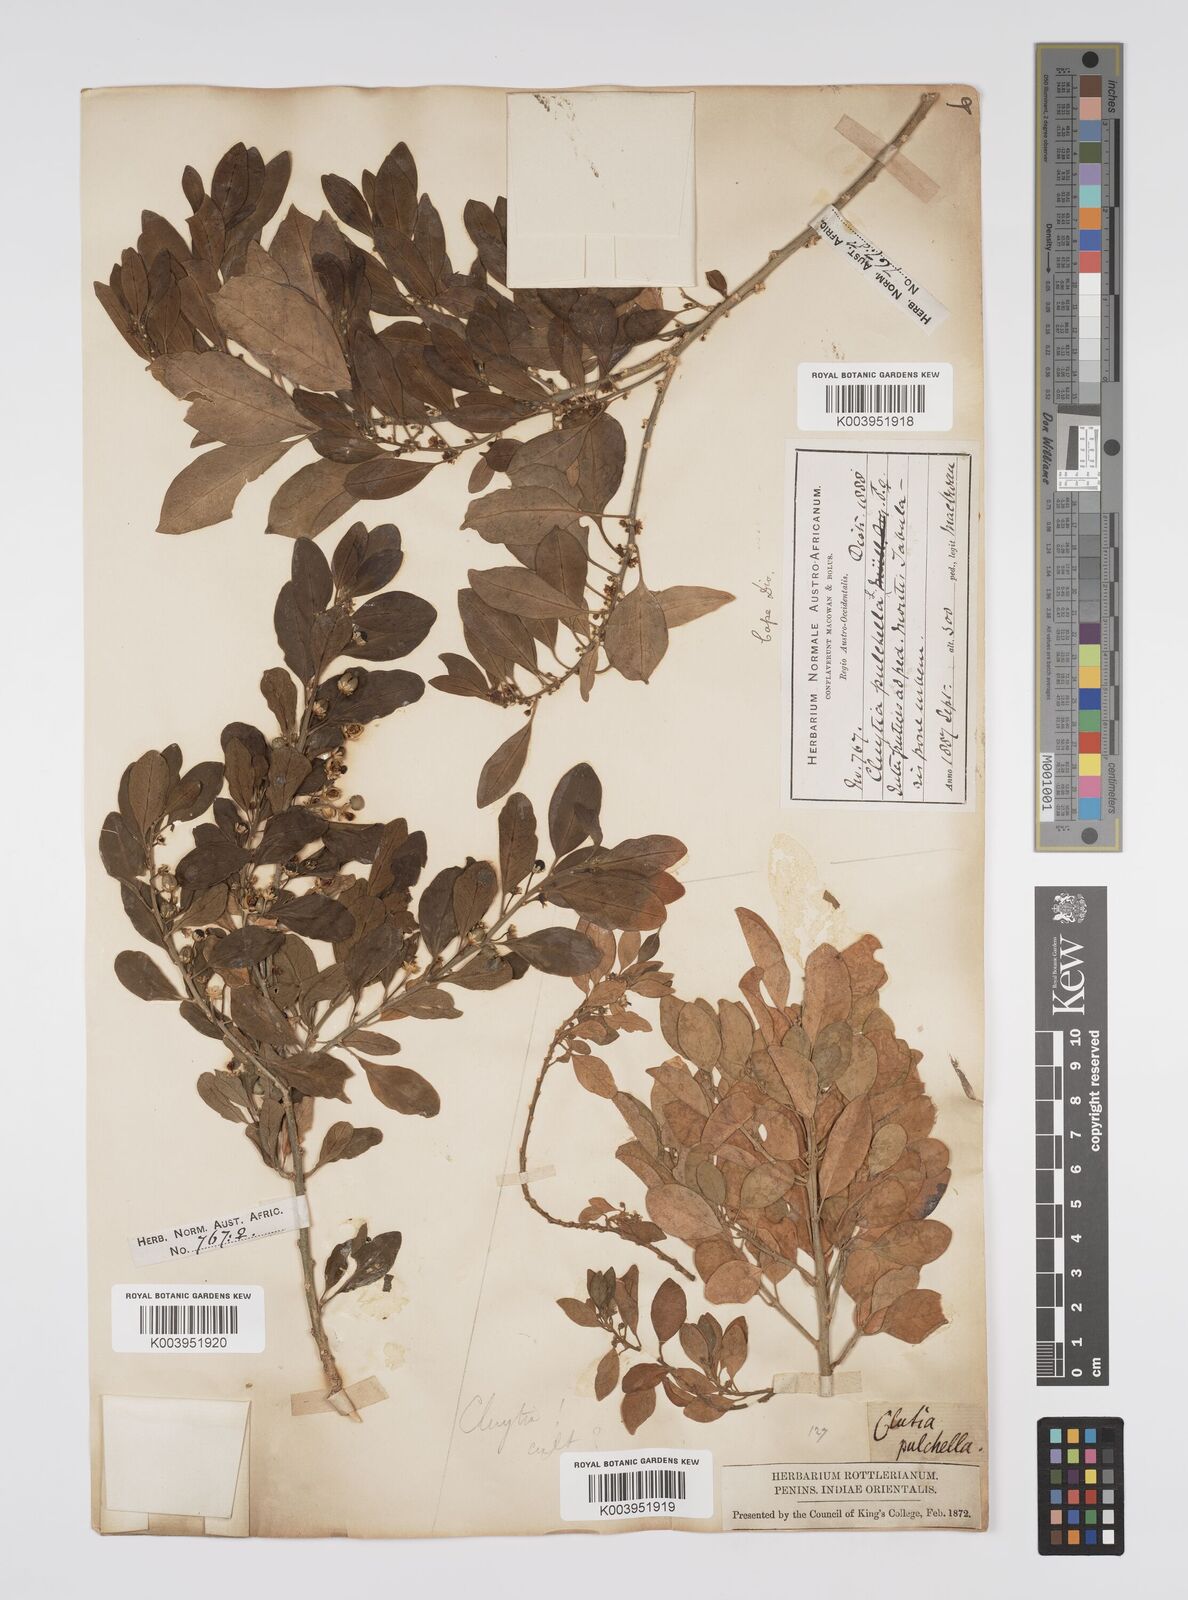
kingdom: Plantae
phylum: Tracheophyta
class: Magnoliopsida
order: Malpighiales
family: Peraceae
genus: Clutia
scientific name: Clutia pulchella
